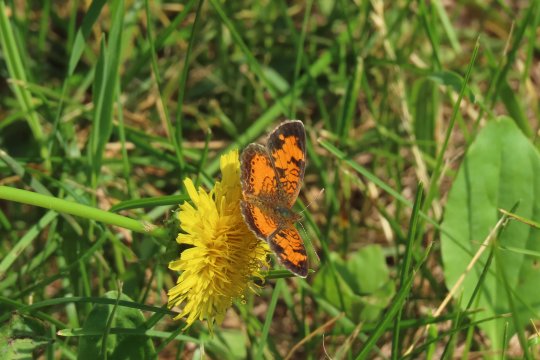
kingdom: Animalia
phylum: Arthropoda
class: Insecta
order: Lepidoptera
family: Nymphalidae
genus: Phyciodes
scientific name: Phyciodes tharos
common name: Northern Crescent
